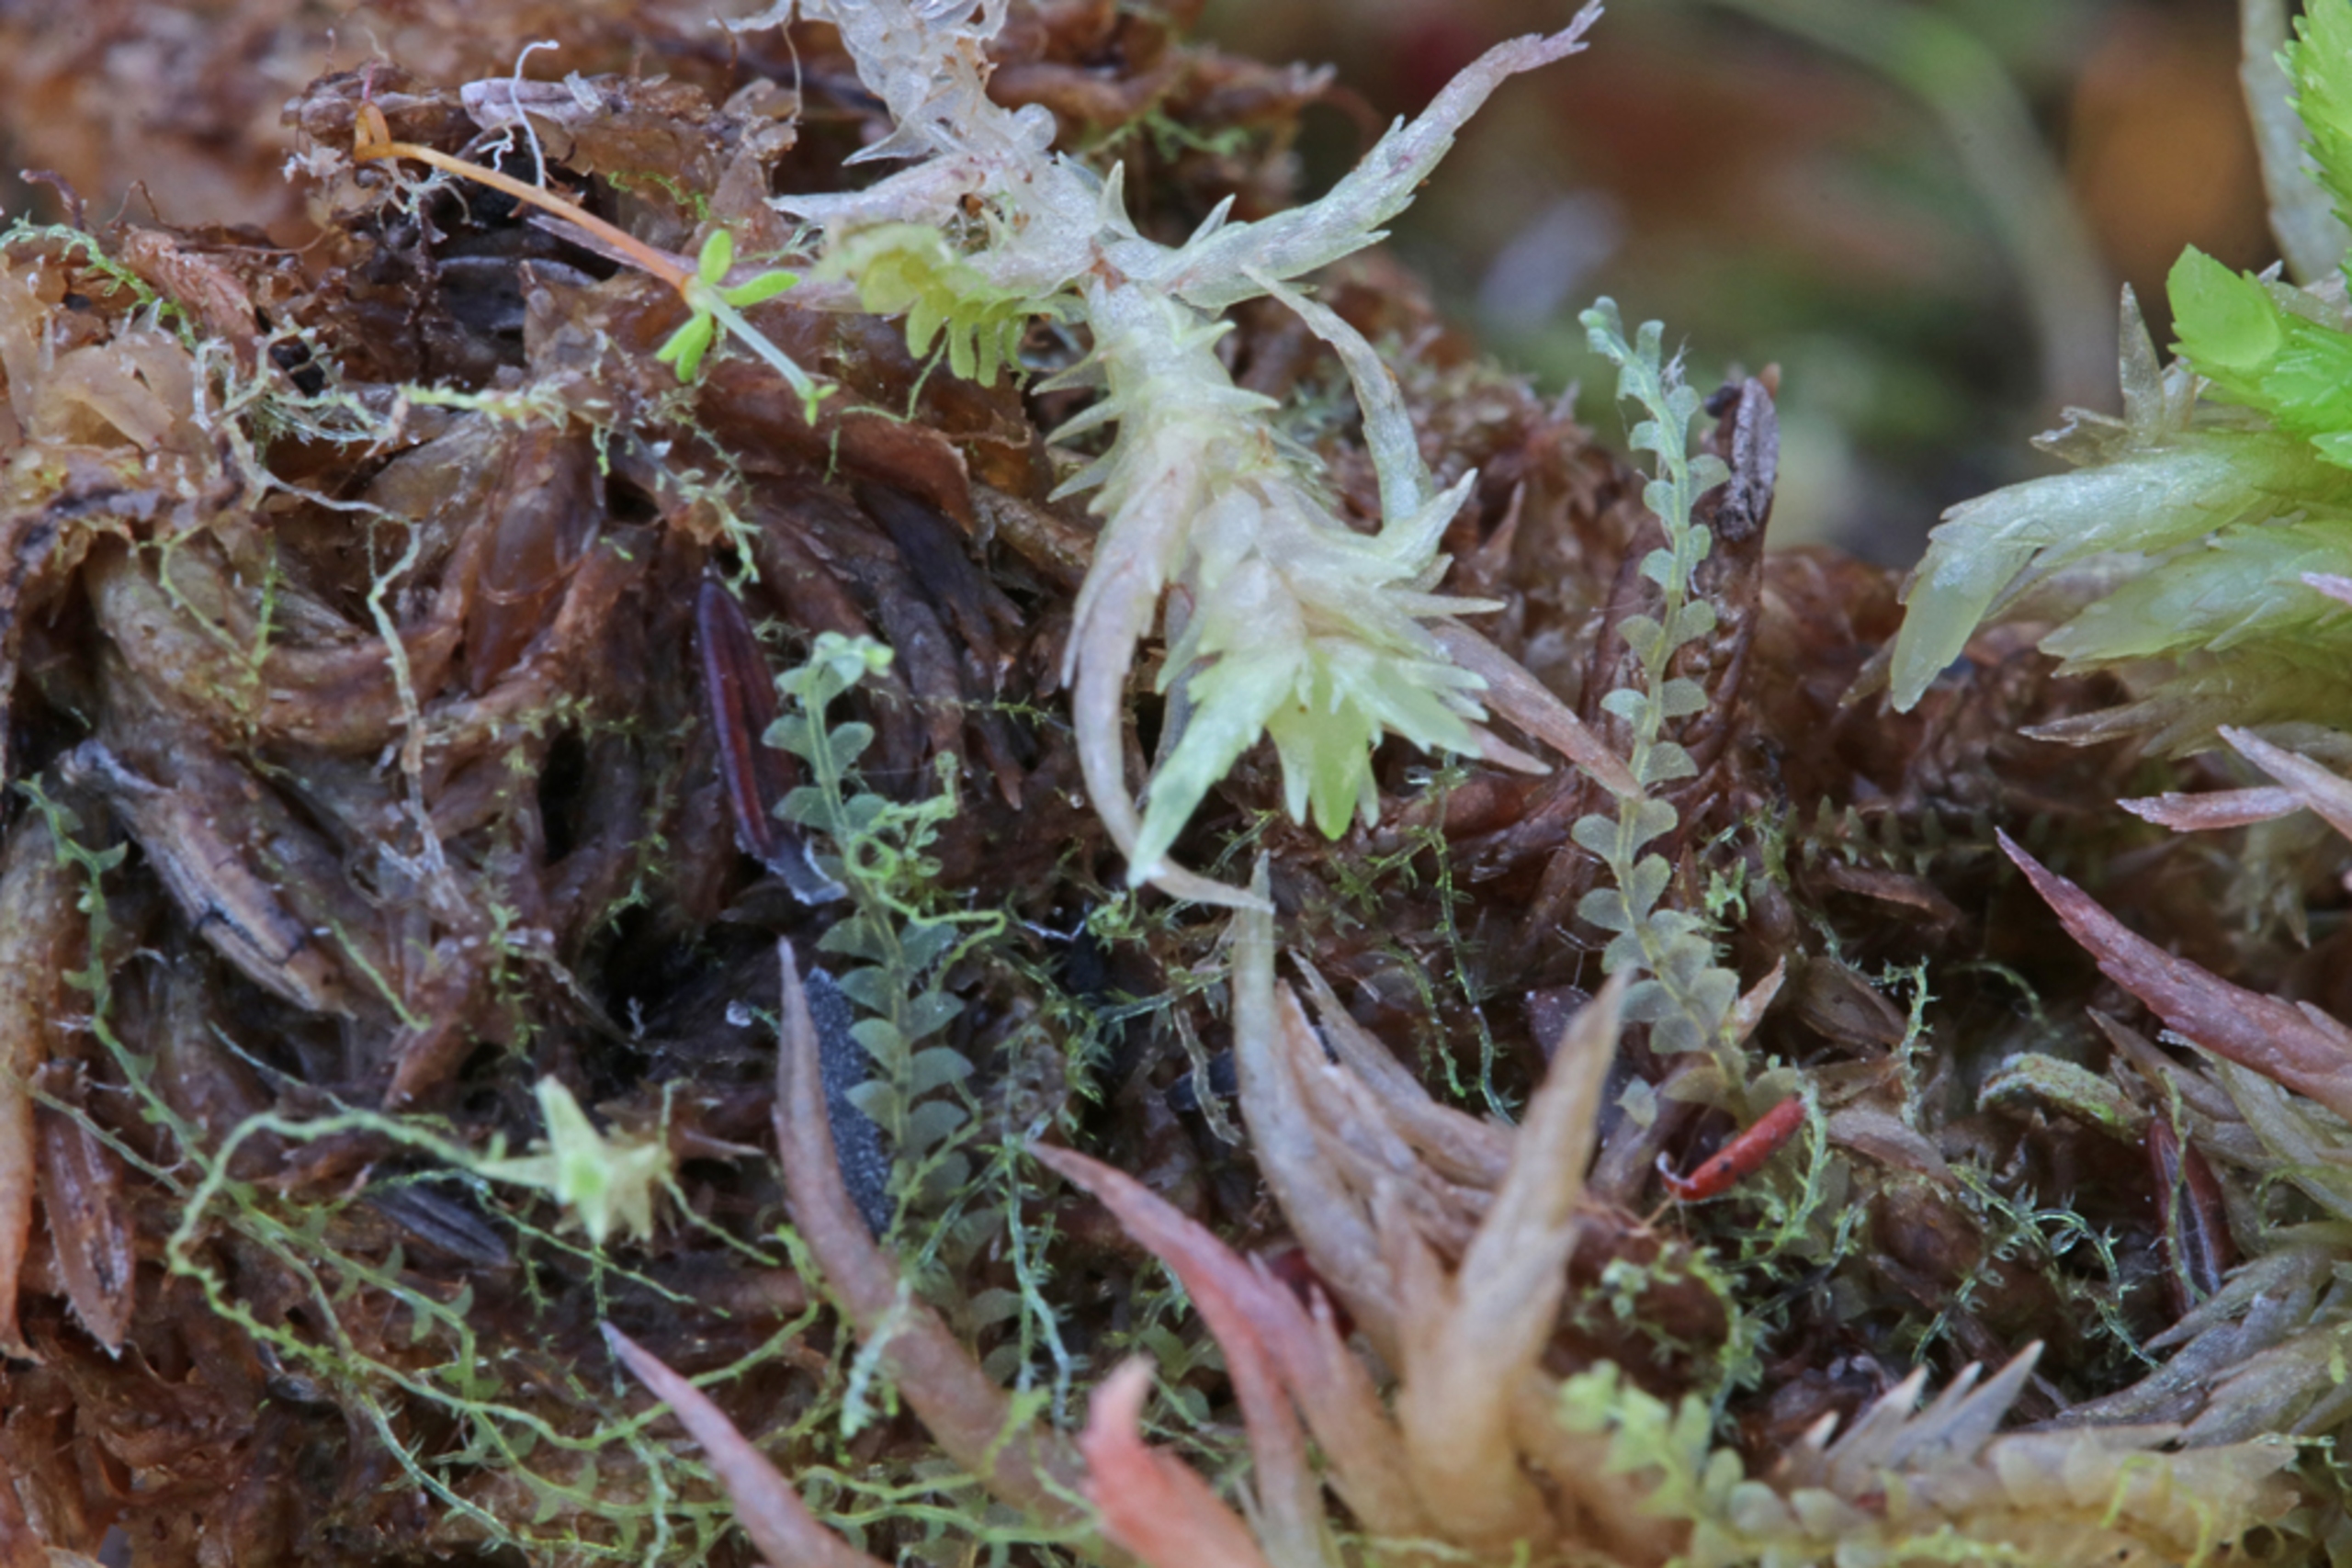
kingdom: Plantae
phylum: Marchantiophyta
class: Jungermanniopsida
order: Jungermanniales
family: Calypogeiaceae
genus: Calypogeia
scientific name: Calypogeia sphagnicola
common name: Mose-sækmos
